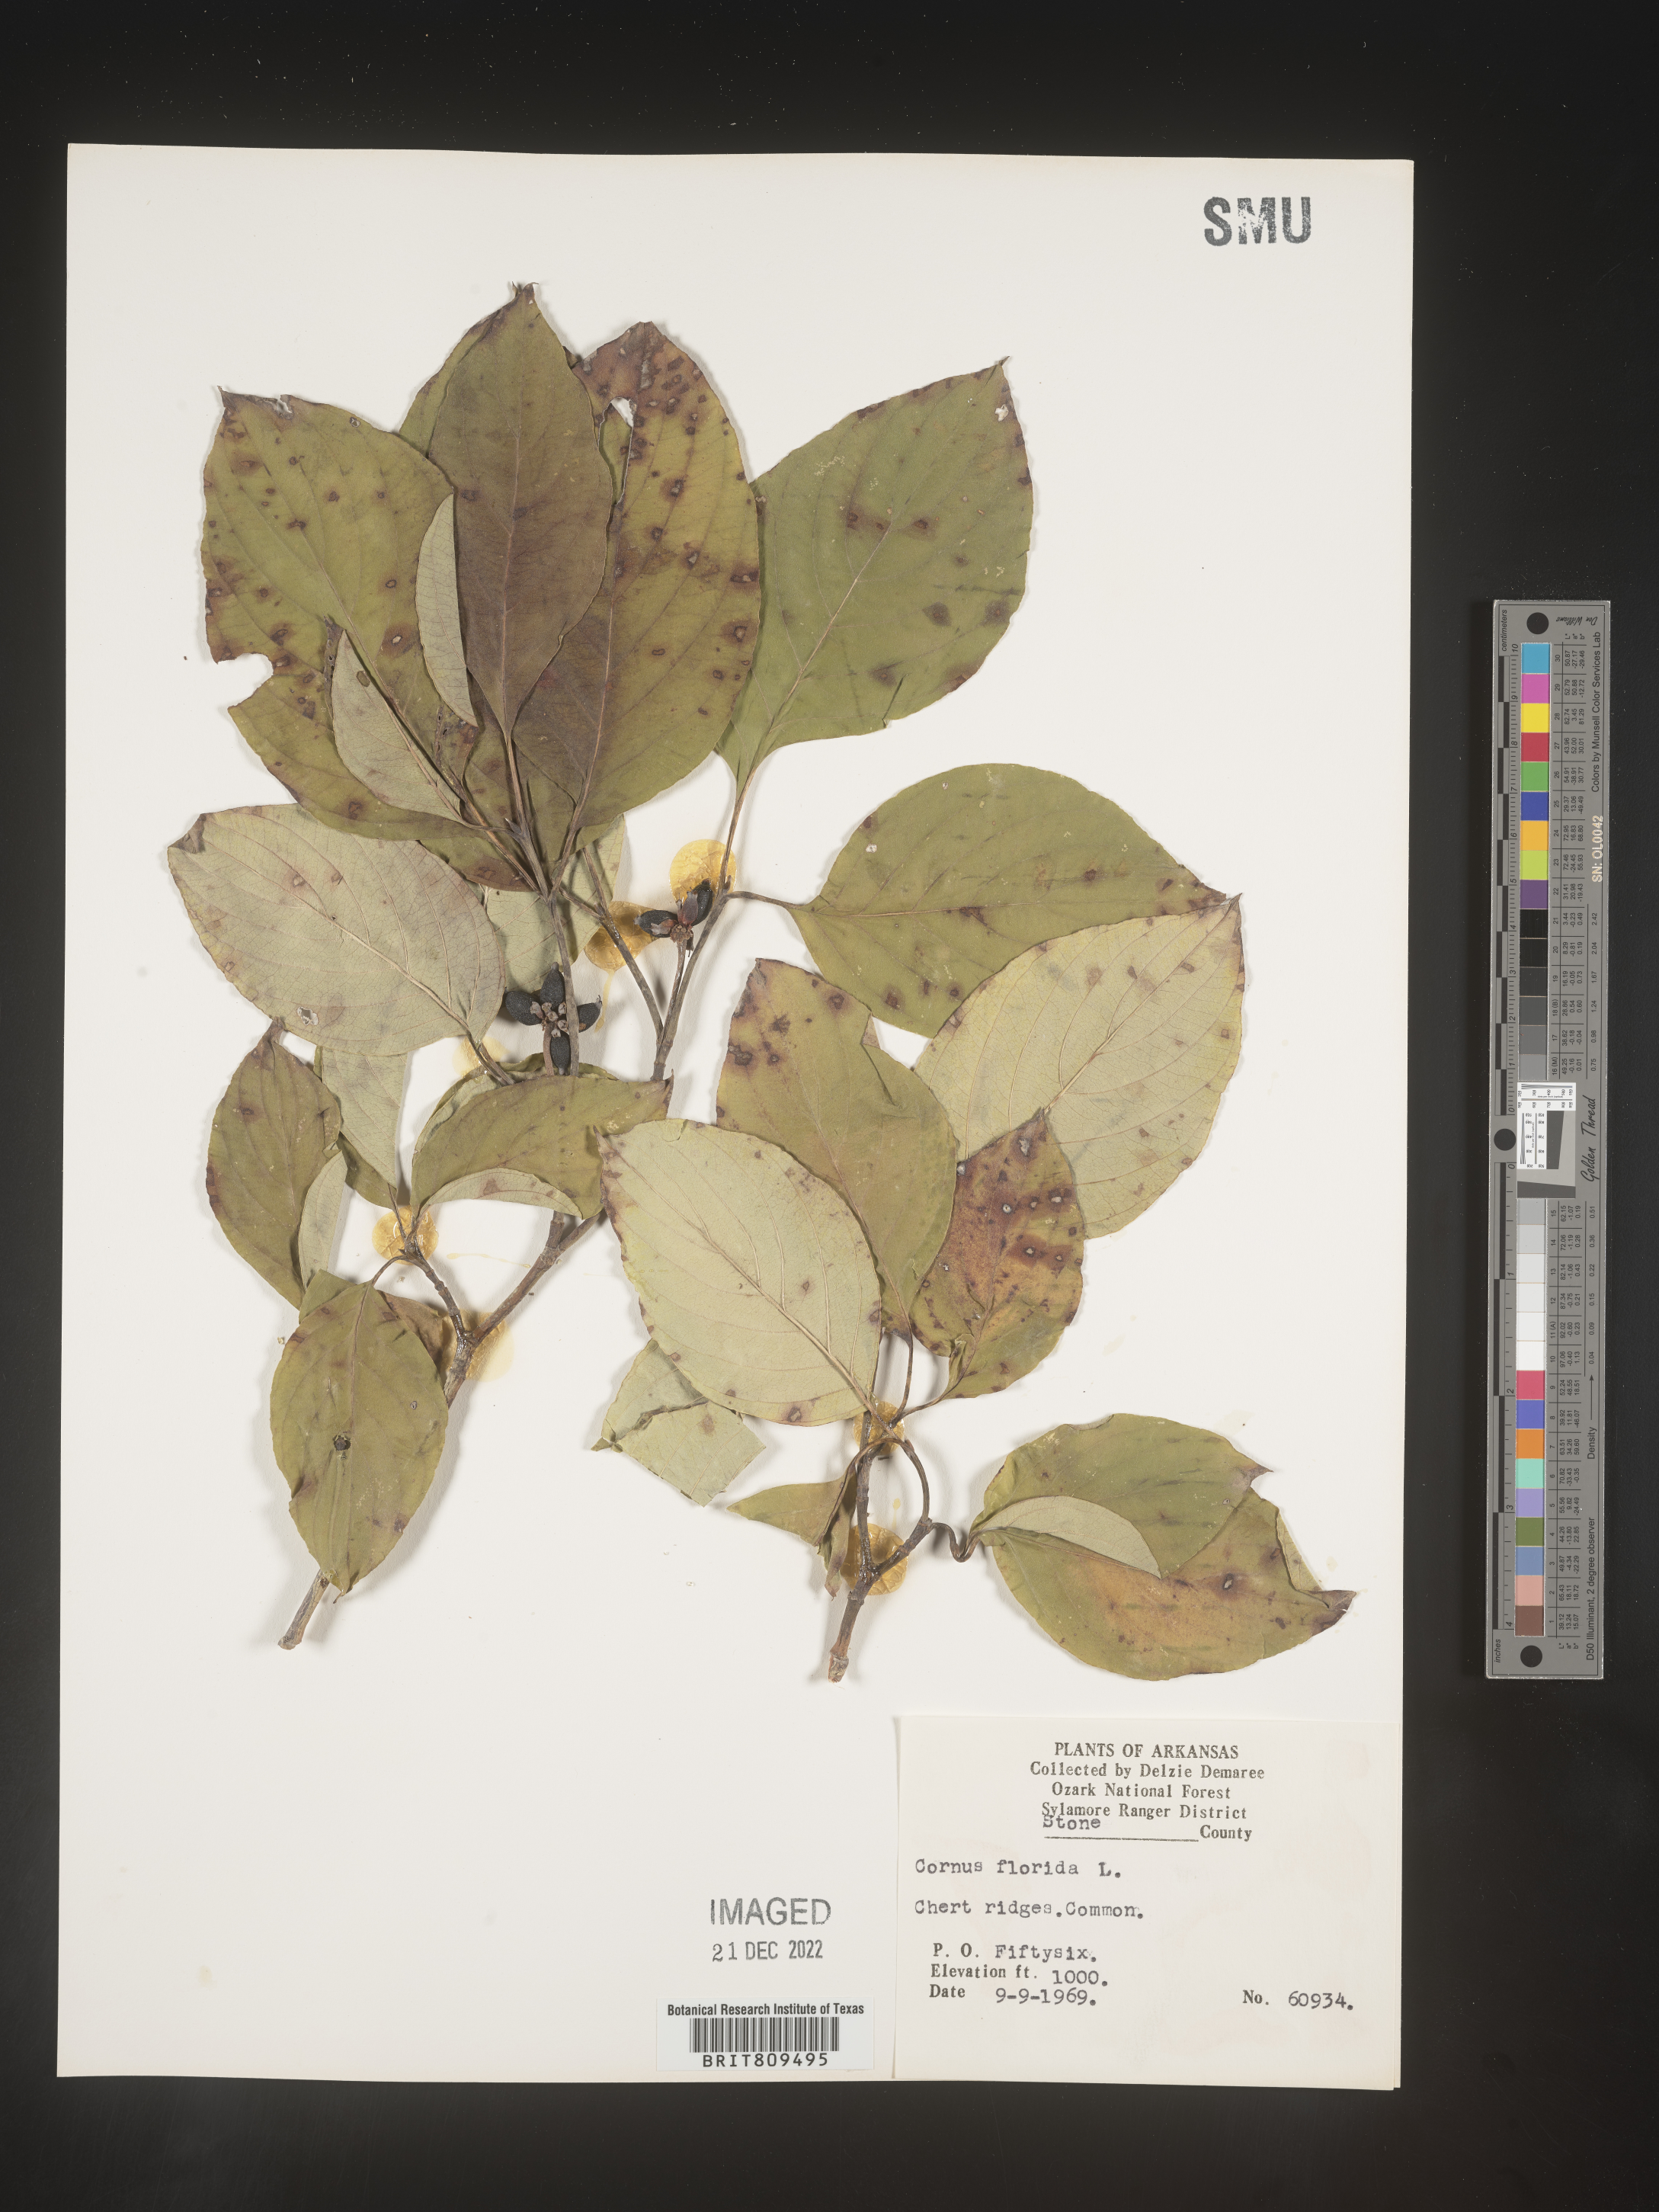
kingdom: Plantae
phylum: Tracheophyta
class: Magnoliopsida
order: Cornales
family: Cornaceae
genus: Cornus
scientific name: Cornus florida
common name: Flowering dogwood
